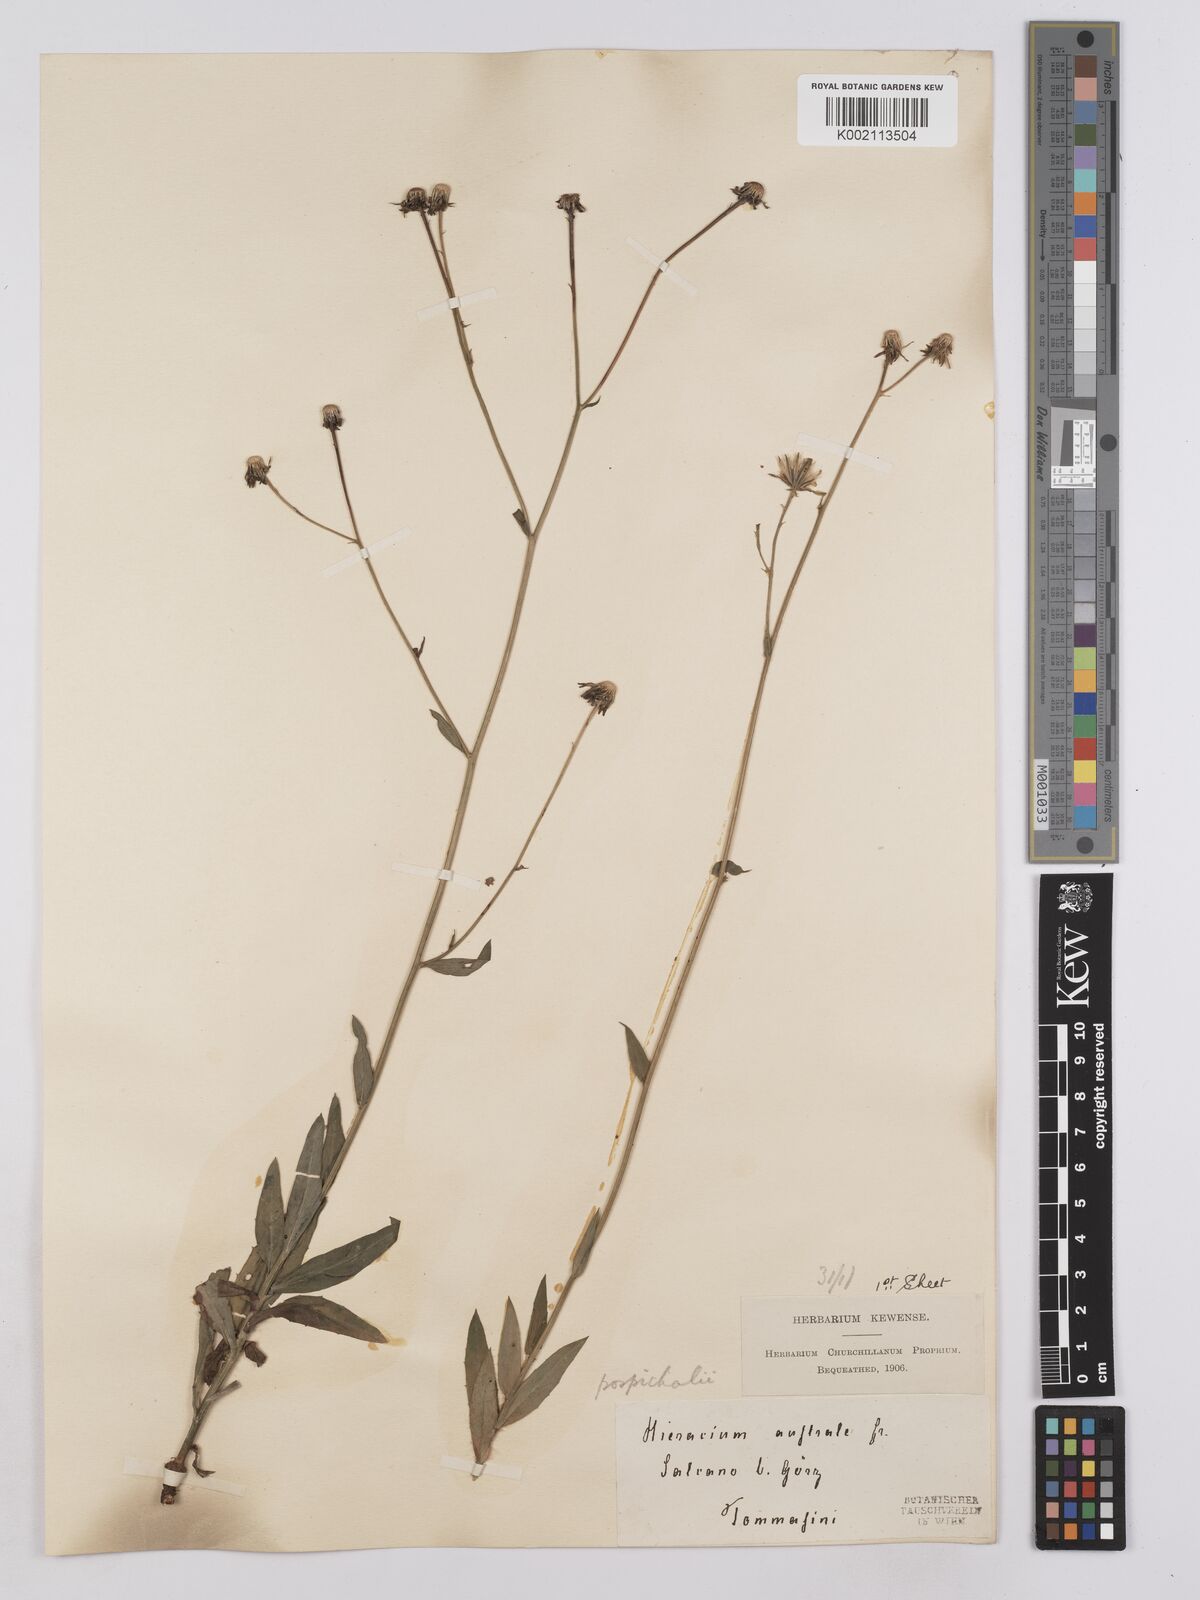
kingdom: Plantae
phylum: Tracheophyta
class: Magnoliopsida
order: Asterales
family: Asteraceae
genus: Hieracium
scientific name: Hieracium porrifolium
